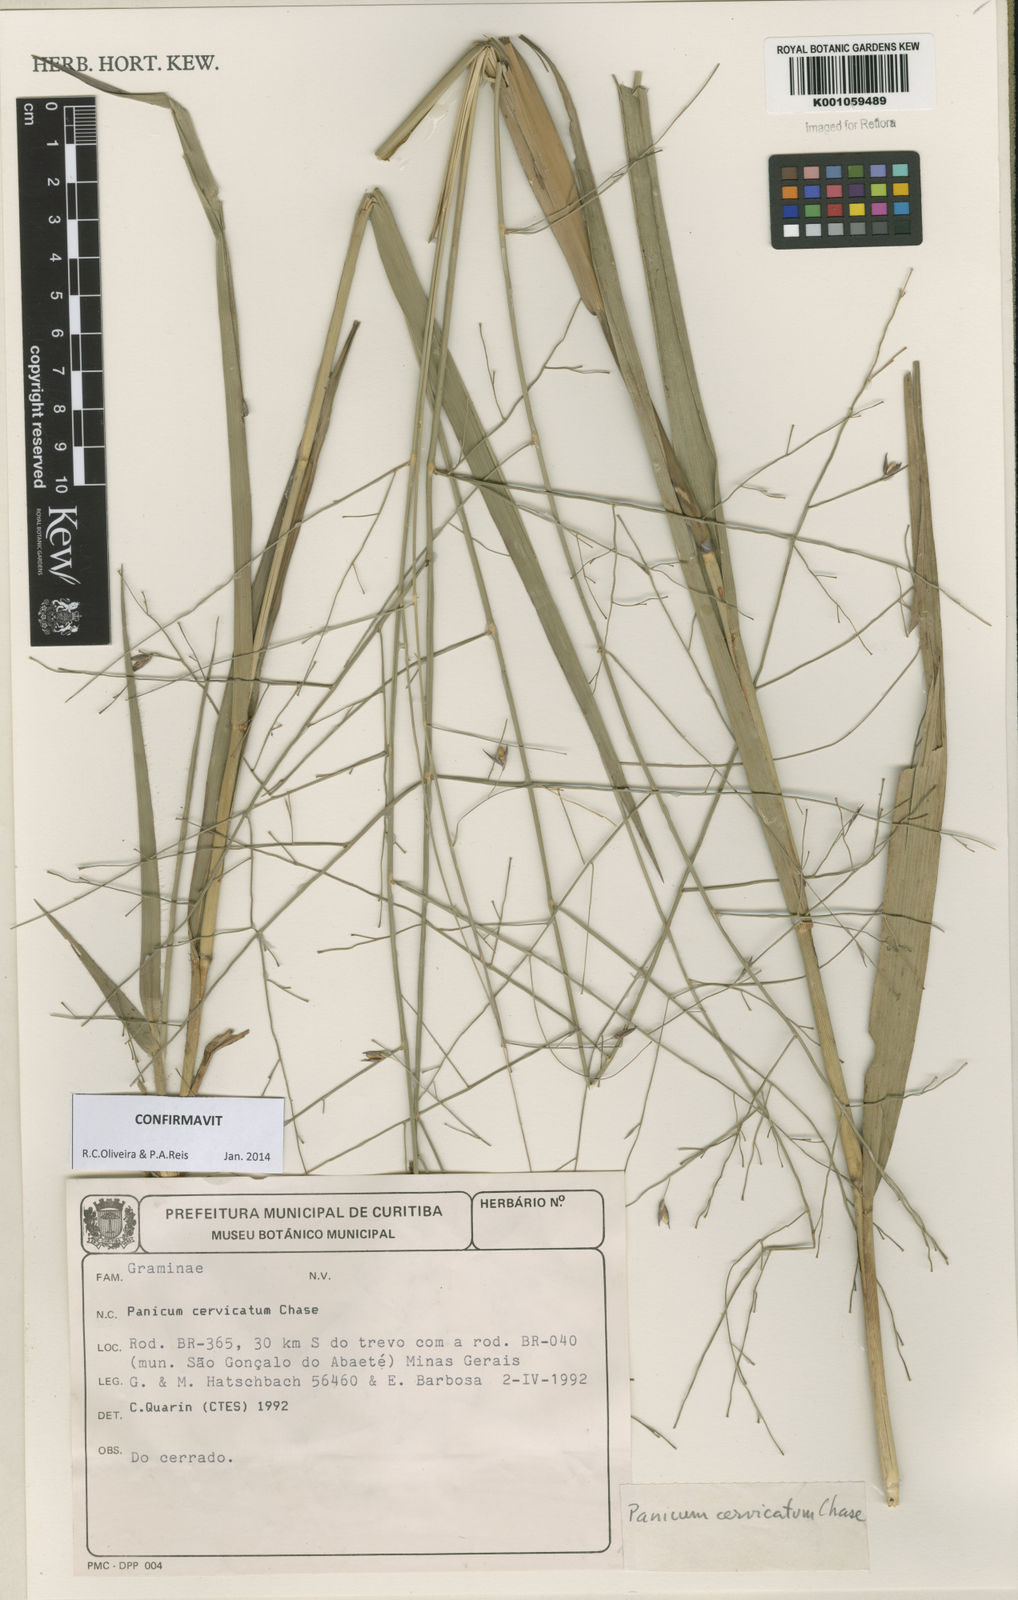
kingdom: Plantae
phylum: Tracheophyta
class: Liliopsida
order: Poales
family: Poaceae
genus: Panicum
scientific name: Panicum cervicatum
